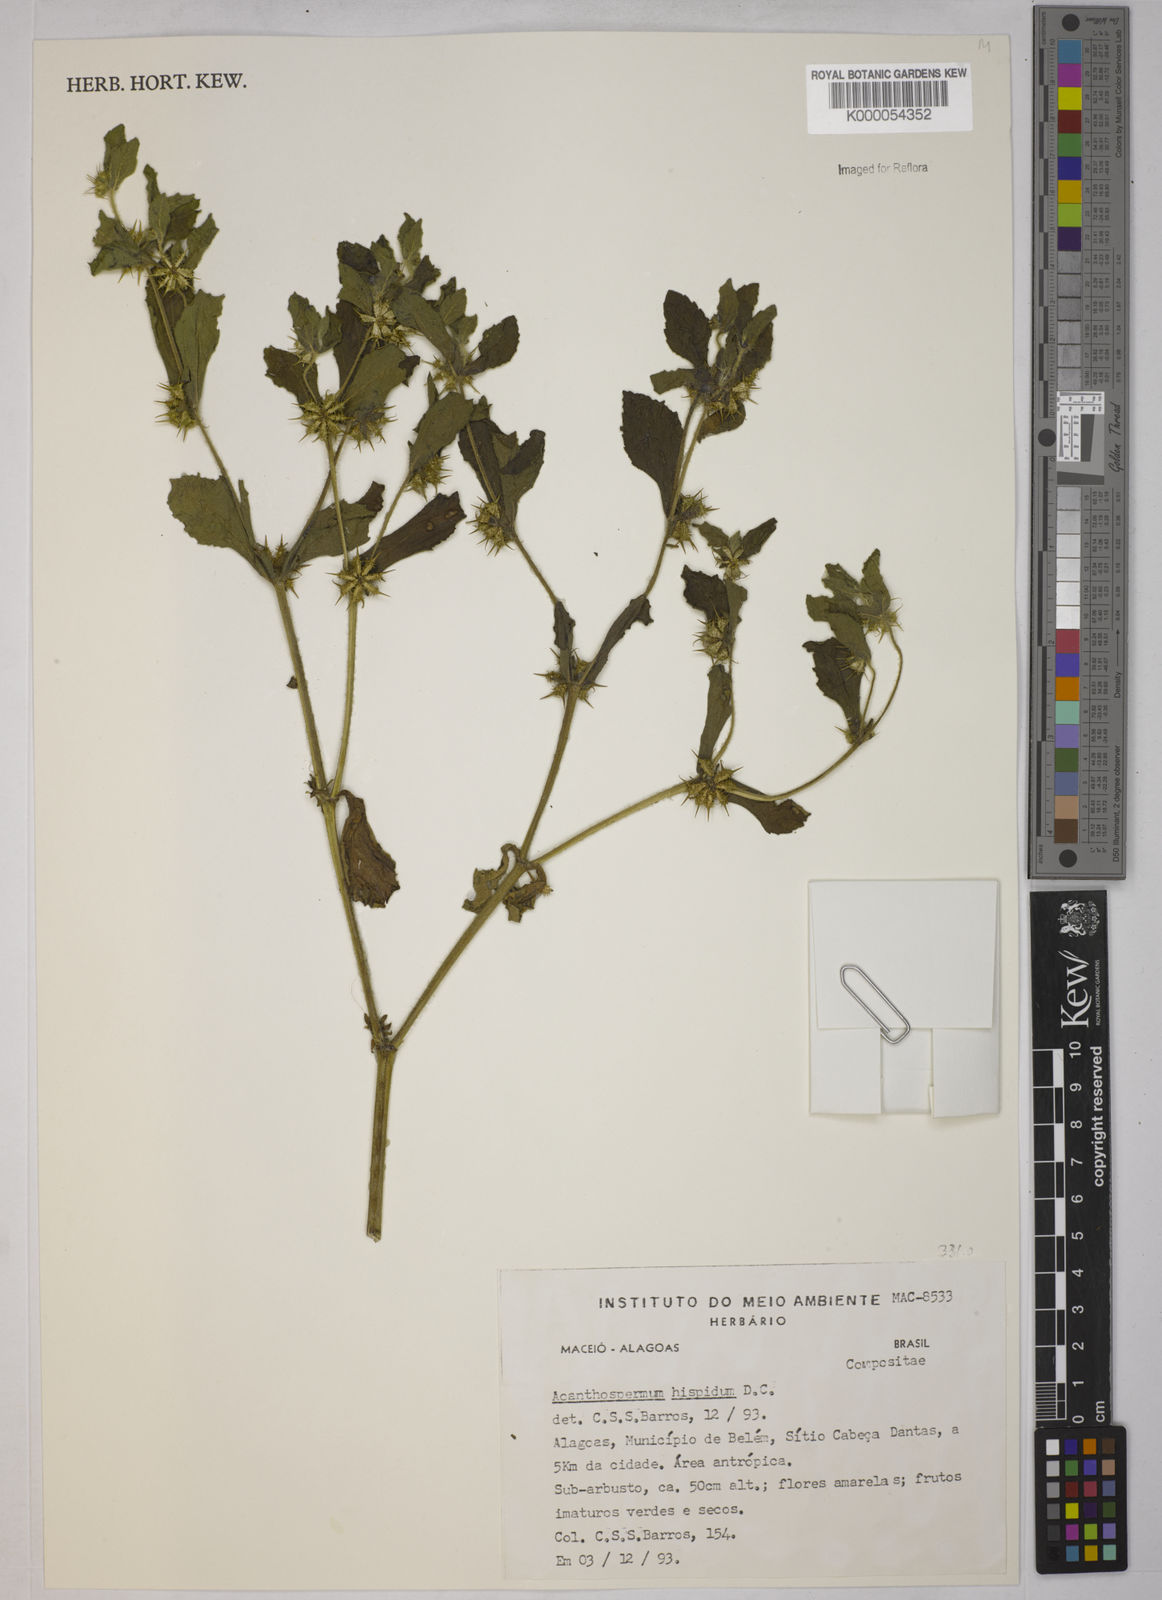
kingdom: Plantae
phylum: Tracheophyta
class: Magnoliopsida
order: Asterales
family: Asteraceae
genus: Acanthospermum
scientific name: Acanthospermum hispidum
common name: Hispid starbur
